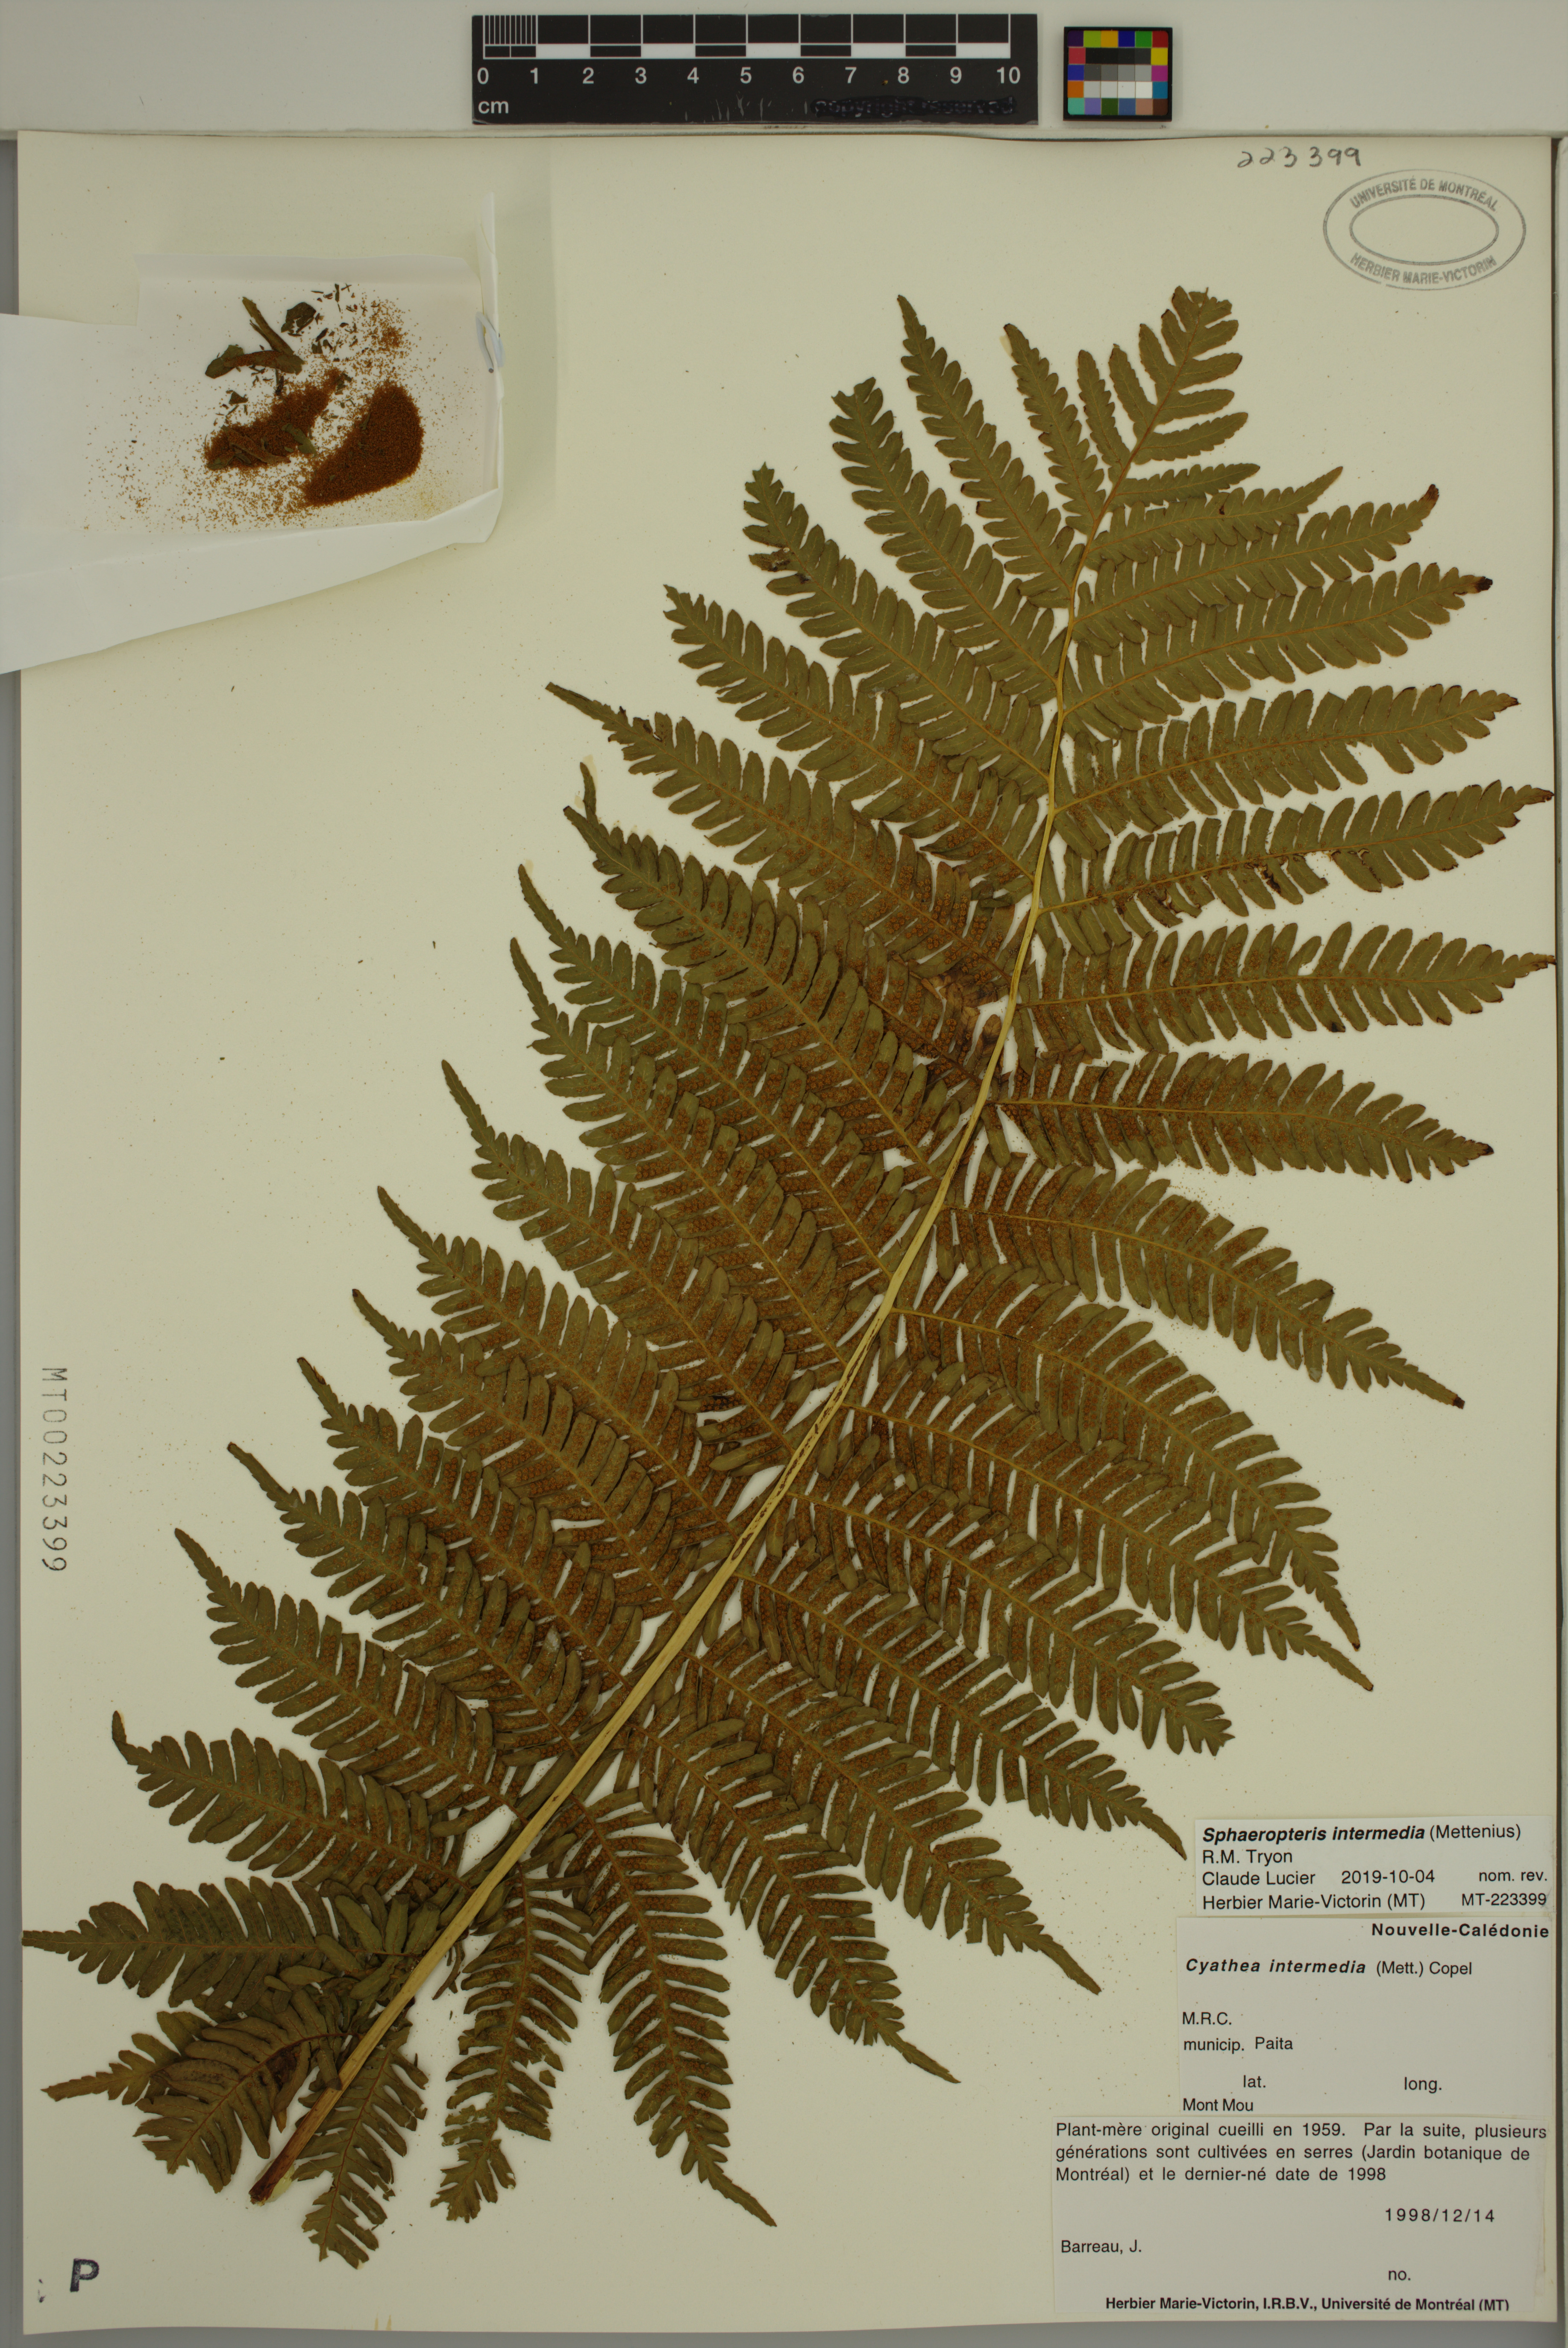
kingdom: Plantae
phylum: Tracheophyta
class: Polypodiopsida
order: Cyatheales
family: Cyatheaceae
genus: Sphaeropteris
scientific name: Sphaeropteris intermedia
